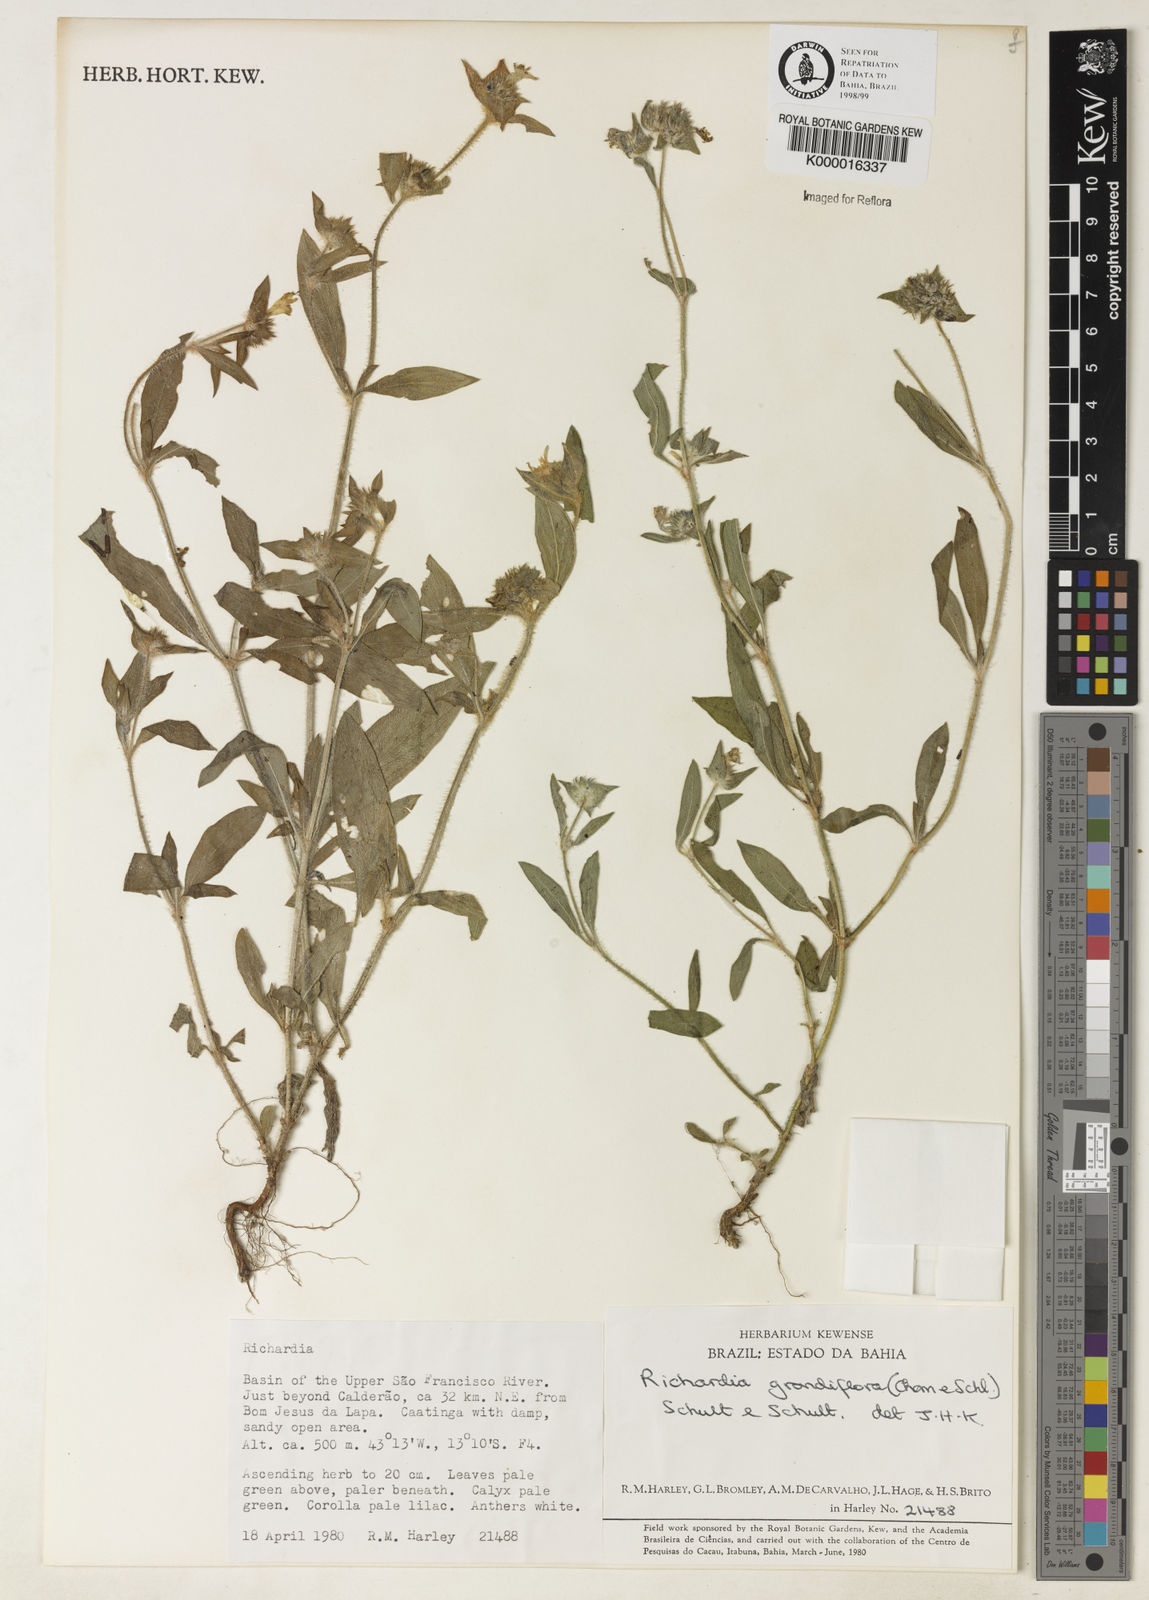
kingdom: Plantae
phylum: Tracheophyta
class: Magnoliopsida
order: Gentianales
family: Rubiaceae
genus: Richardia
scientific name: Richardia grandiflora
